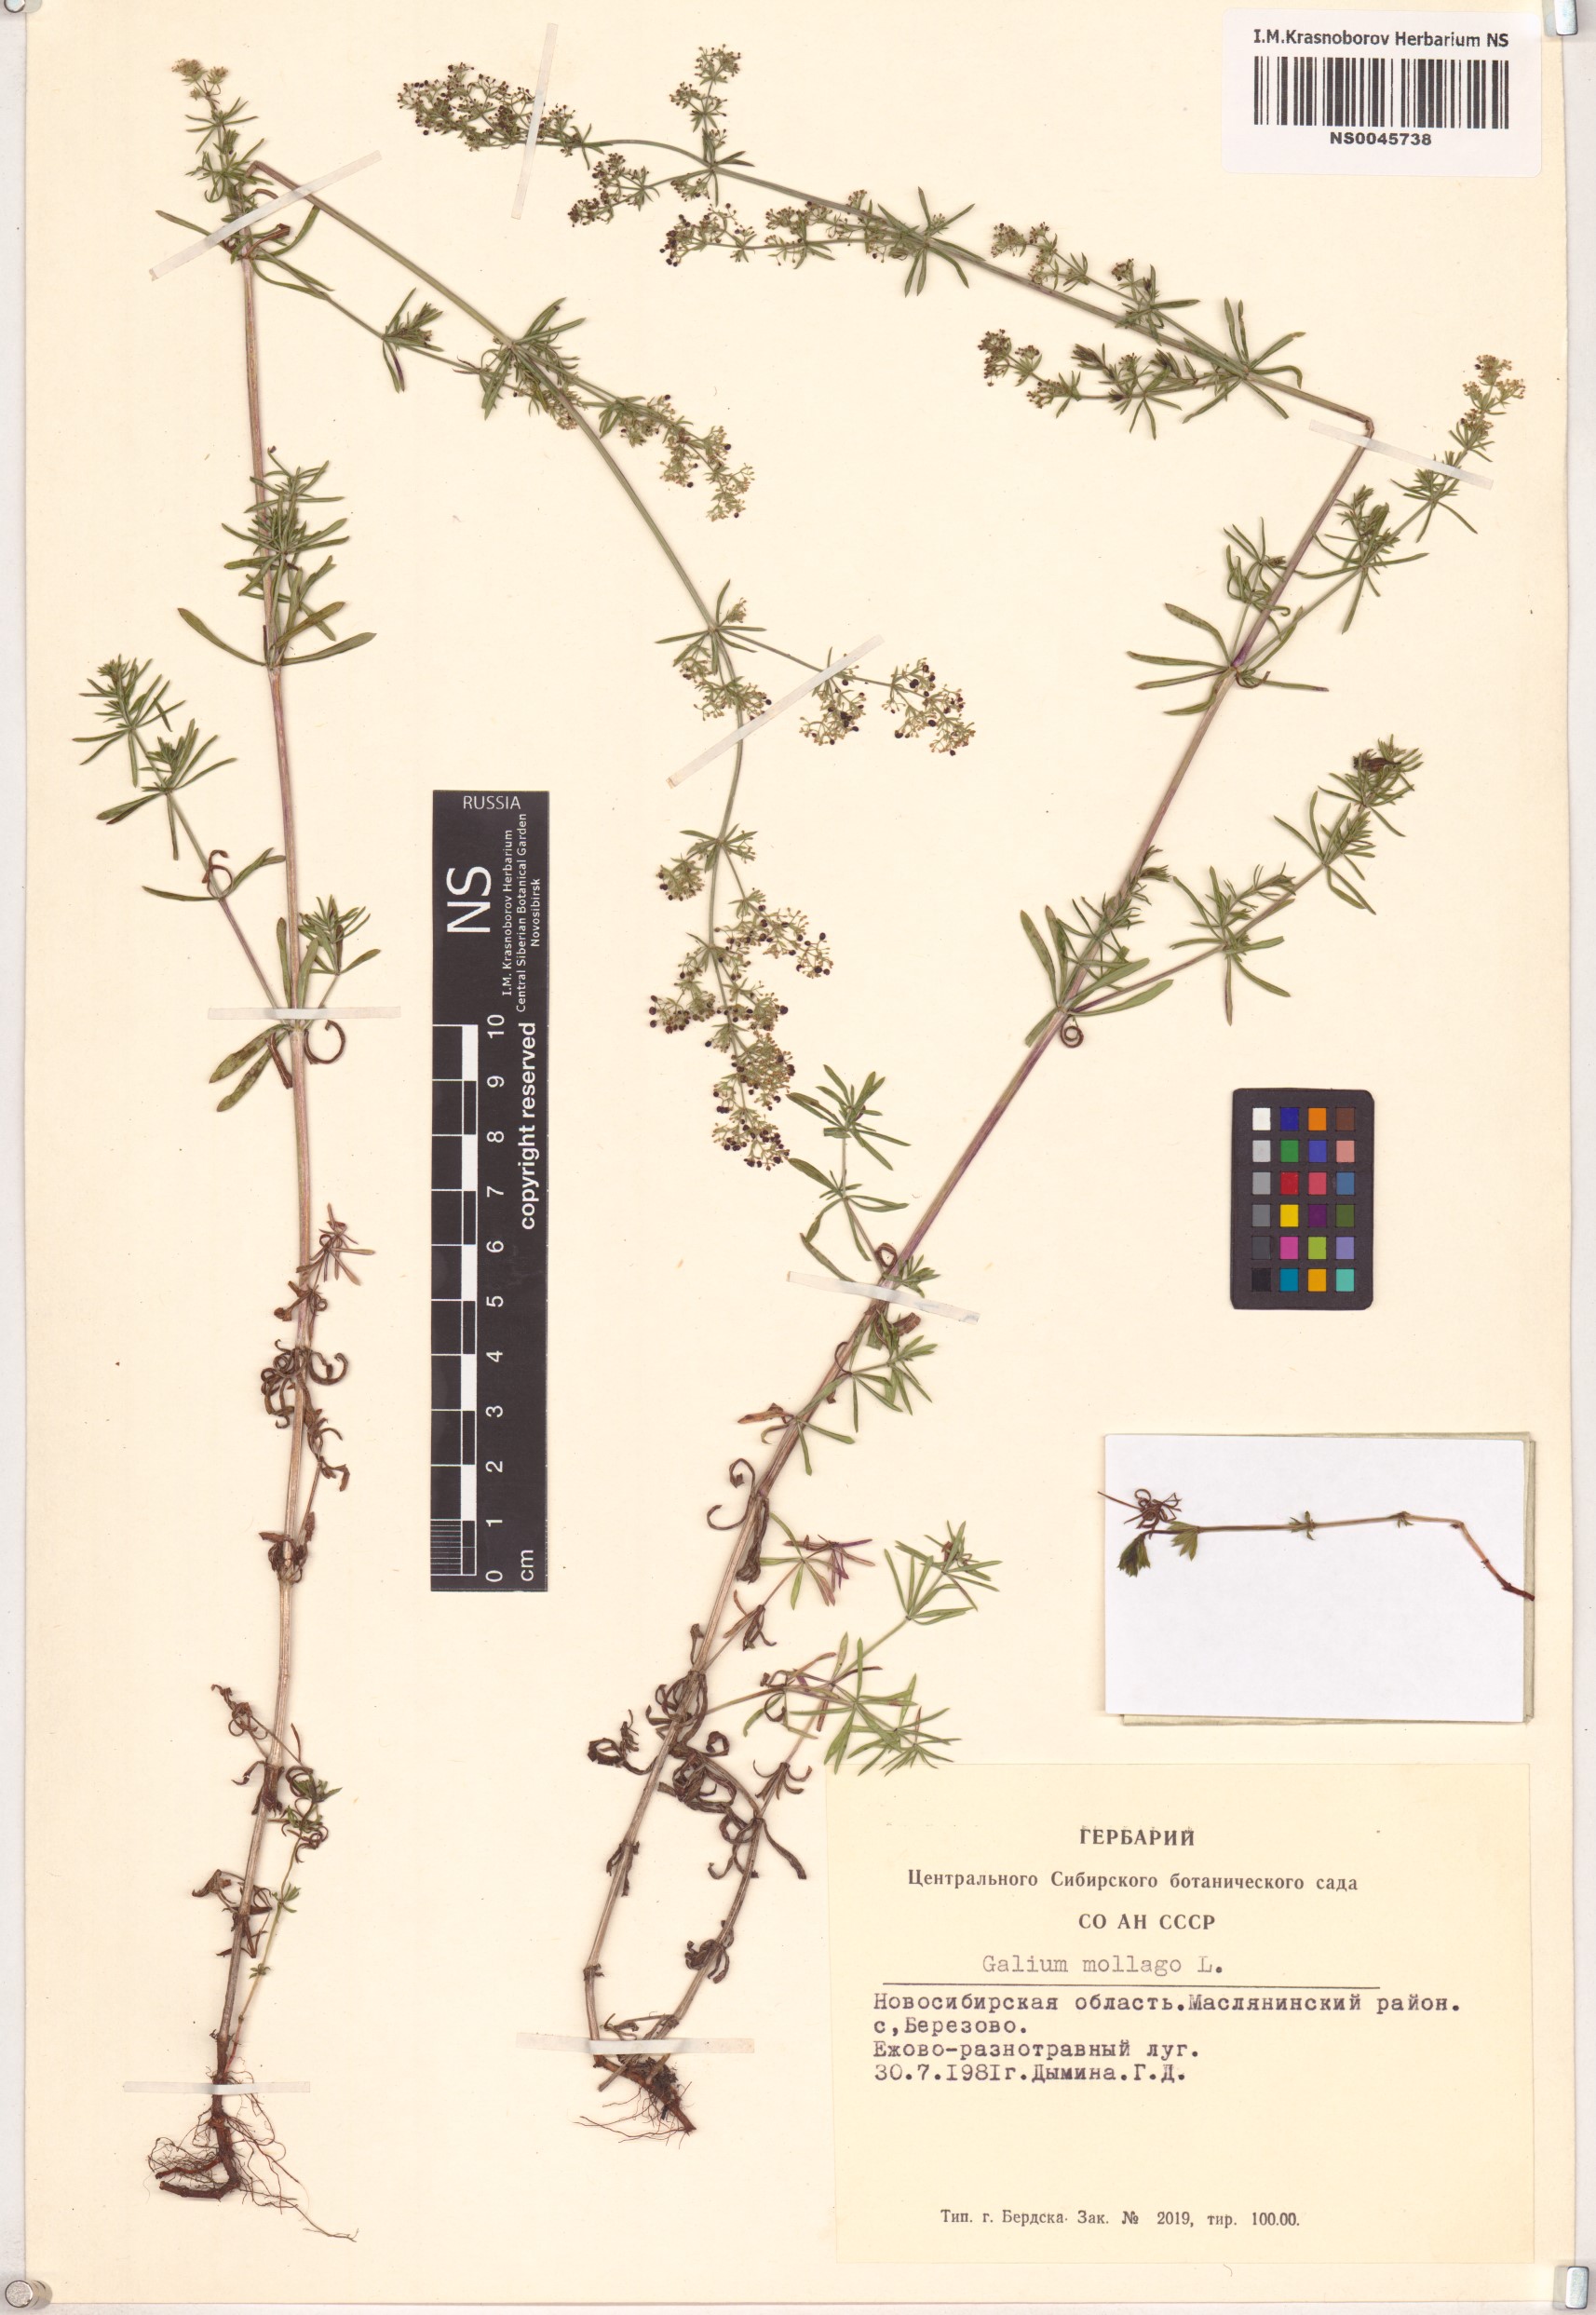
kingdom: Plantae
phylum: Tracheophyta
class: Magnoliopsida
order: Gentianales
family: Rubiaceae
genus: Galium
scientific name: Galium mollugo
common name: Hedge bedstraw
